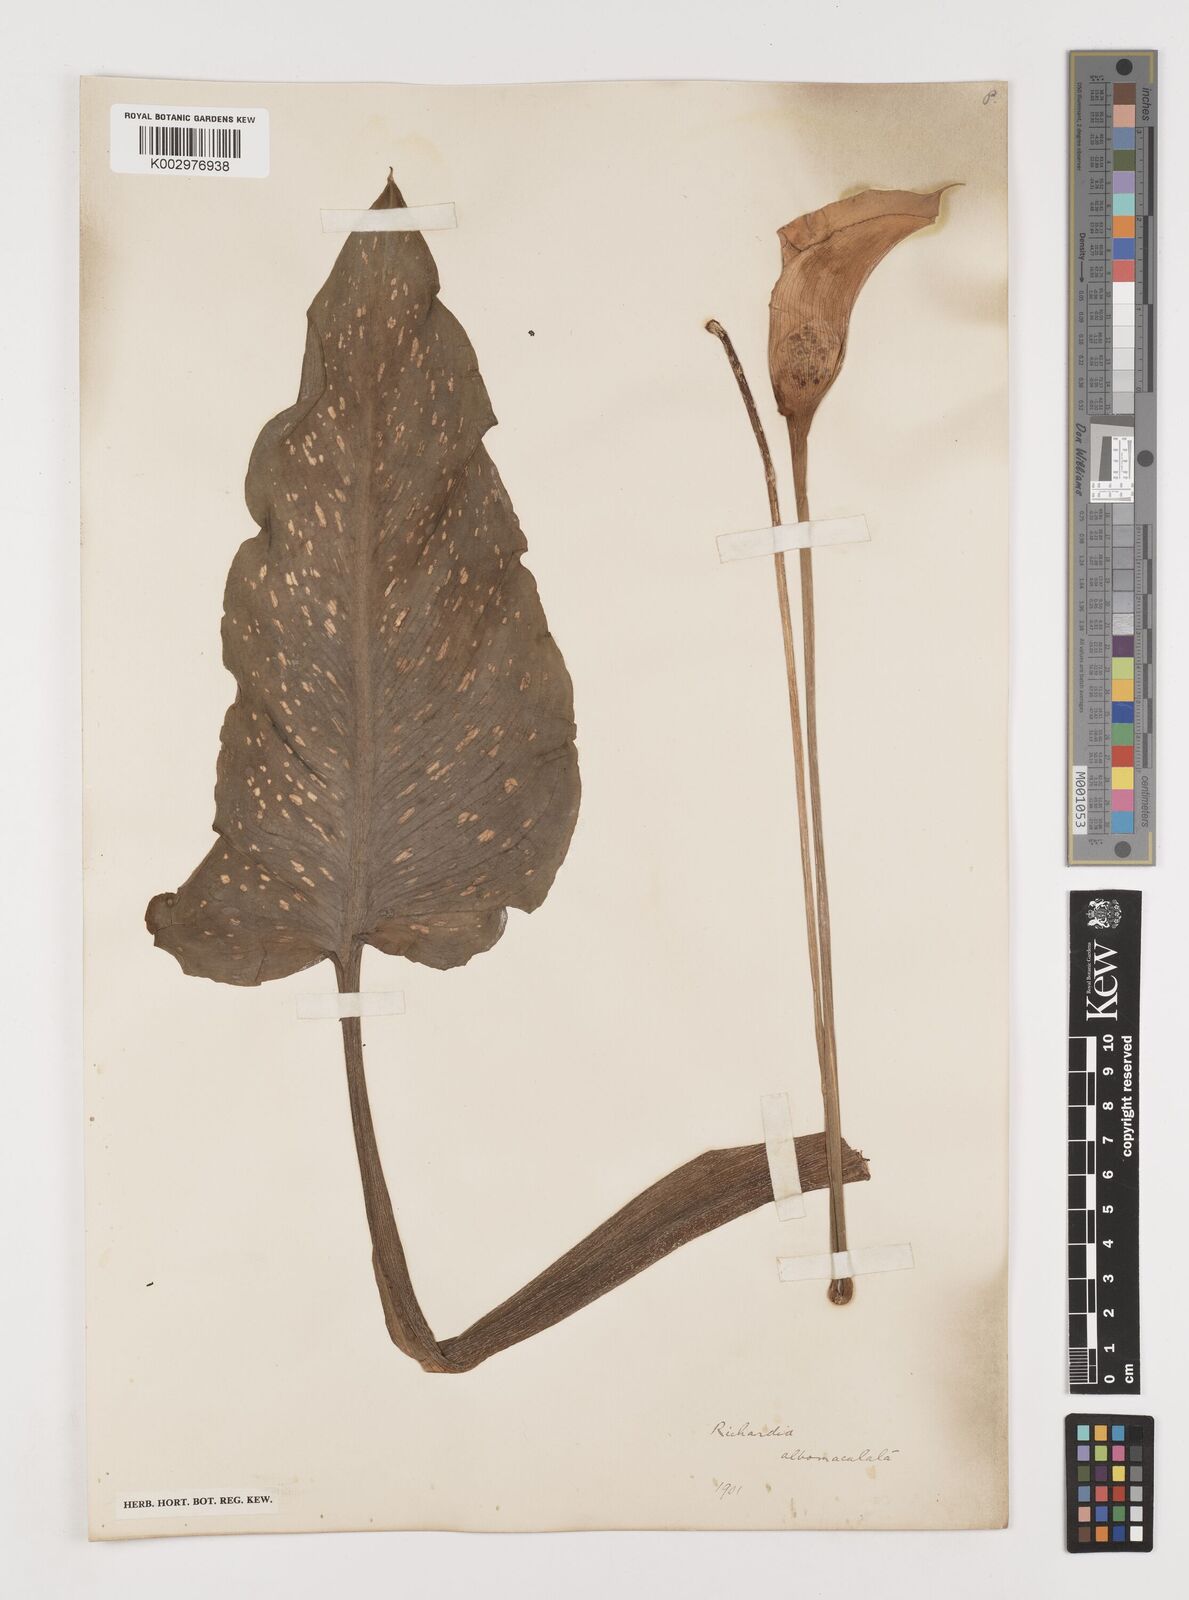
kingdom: Plantae
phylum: Tracheophyta
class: Liliopsida
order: Alismatales
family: Araceae
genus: Zantedeschia
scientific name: Zantedeschia albomaculata
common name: Spotted calla lily
